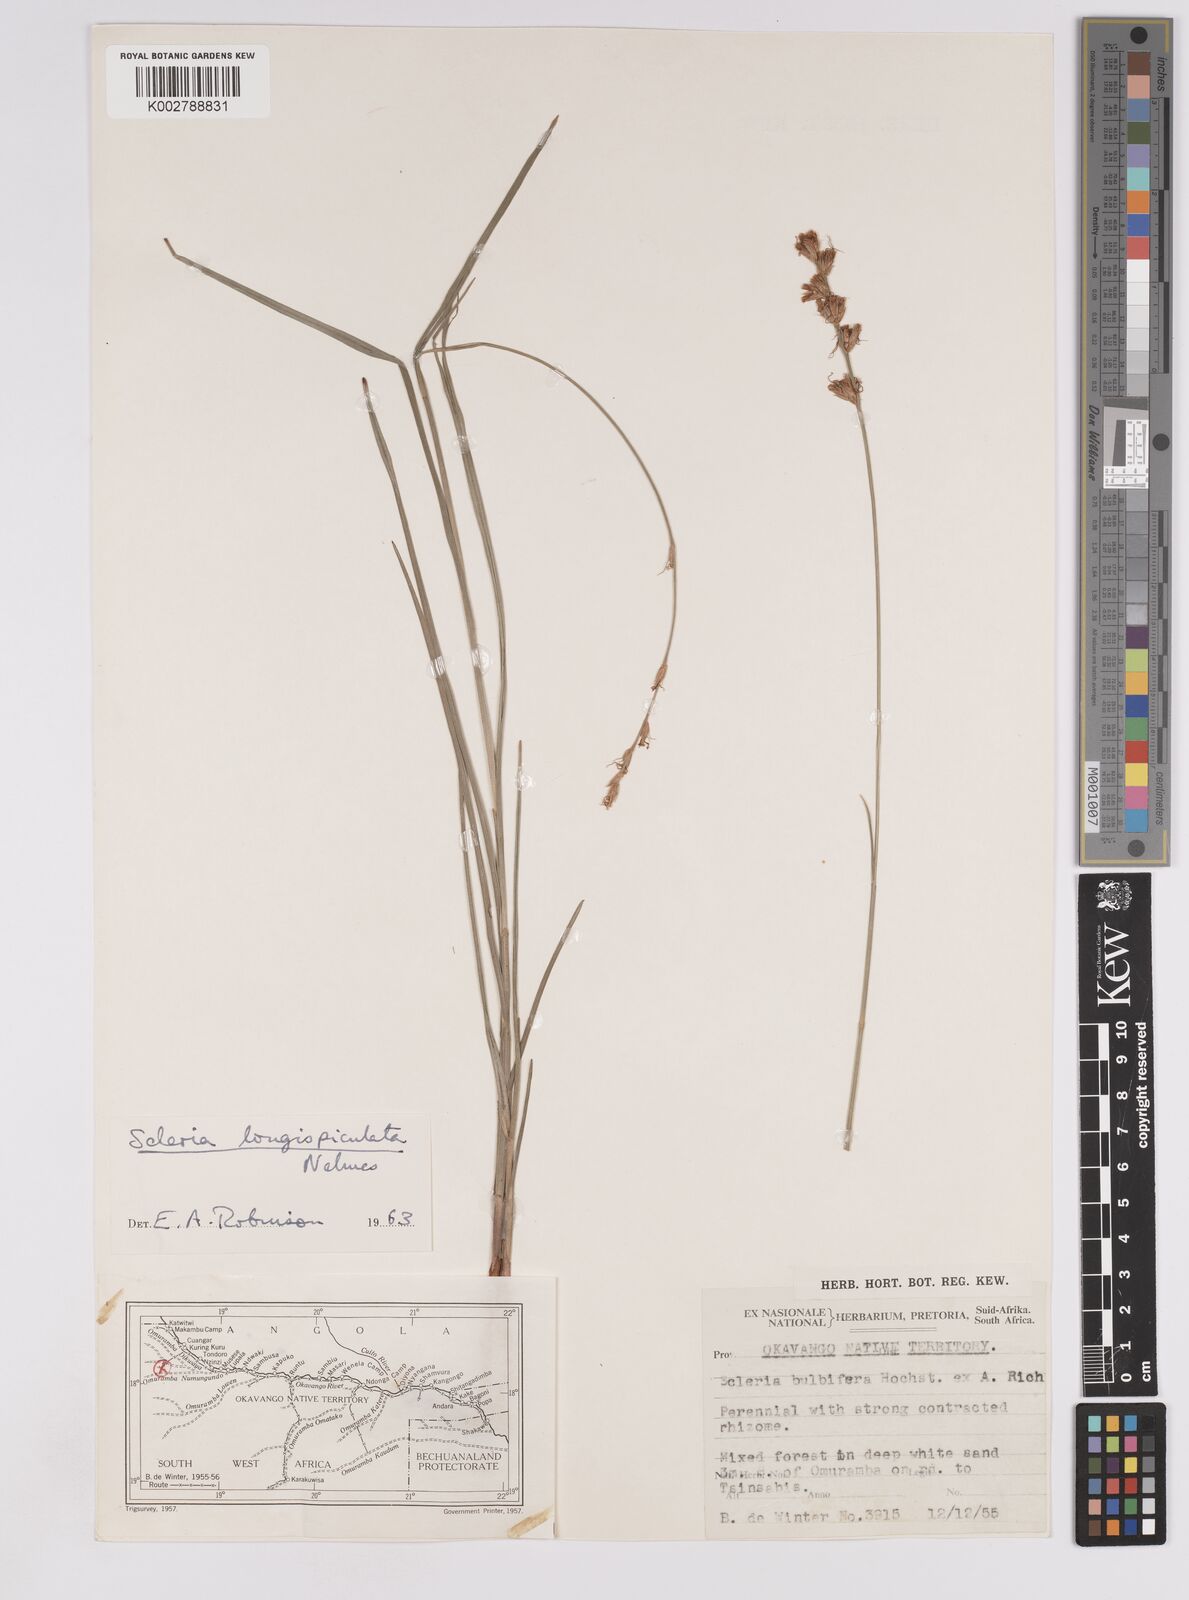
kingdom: Plantae
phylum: Tracheophyta
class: Liliopsida
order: Poales
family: Cyperaceae
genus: Scleria
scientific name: Scleria longispiculata
